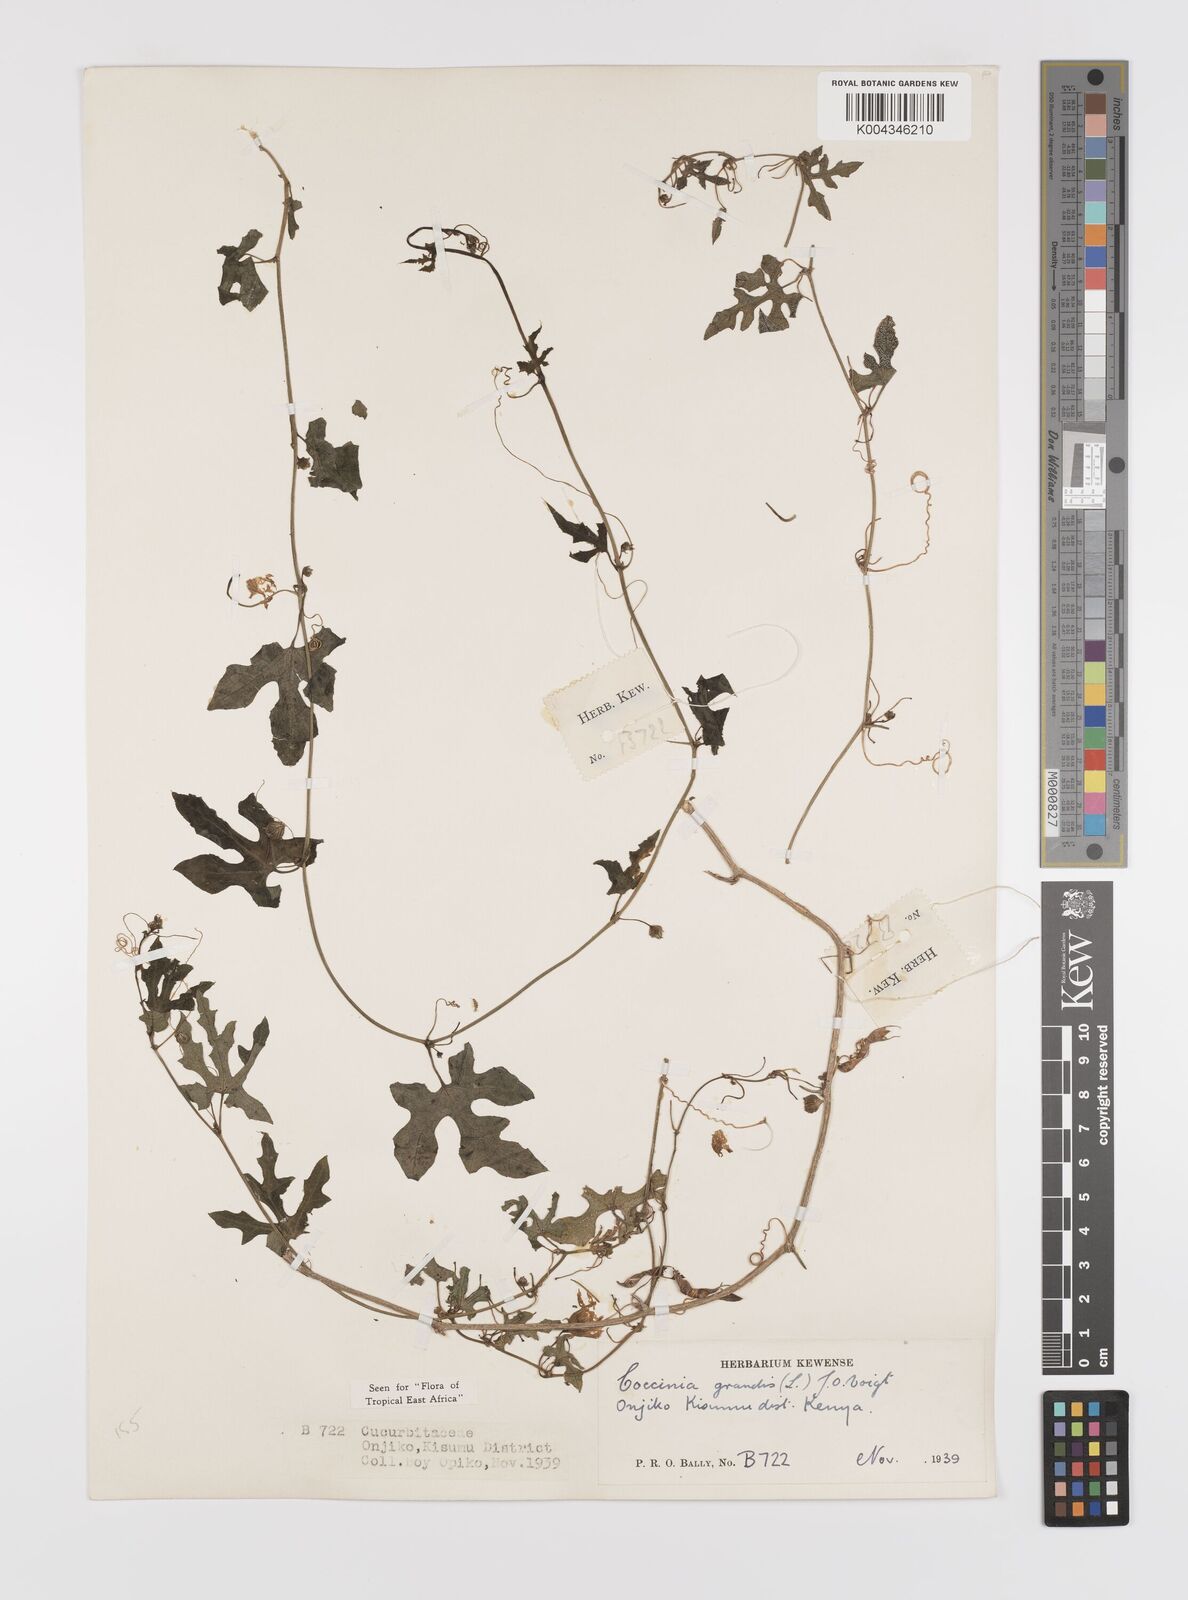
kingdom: Plantae
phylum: Tracheophyta
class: Magnoliopsida
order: Cucurbitales
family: Cucurbitaceae
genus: Coccinia
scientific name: Coccinia grandis
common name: Ivy gourd
